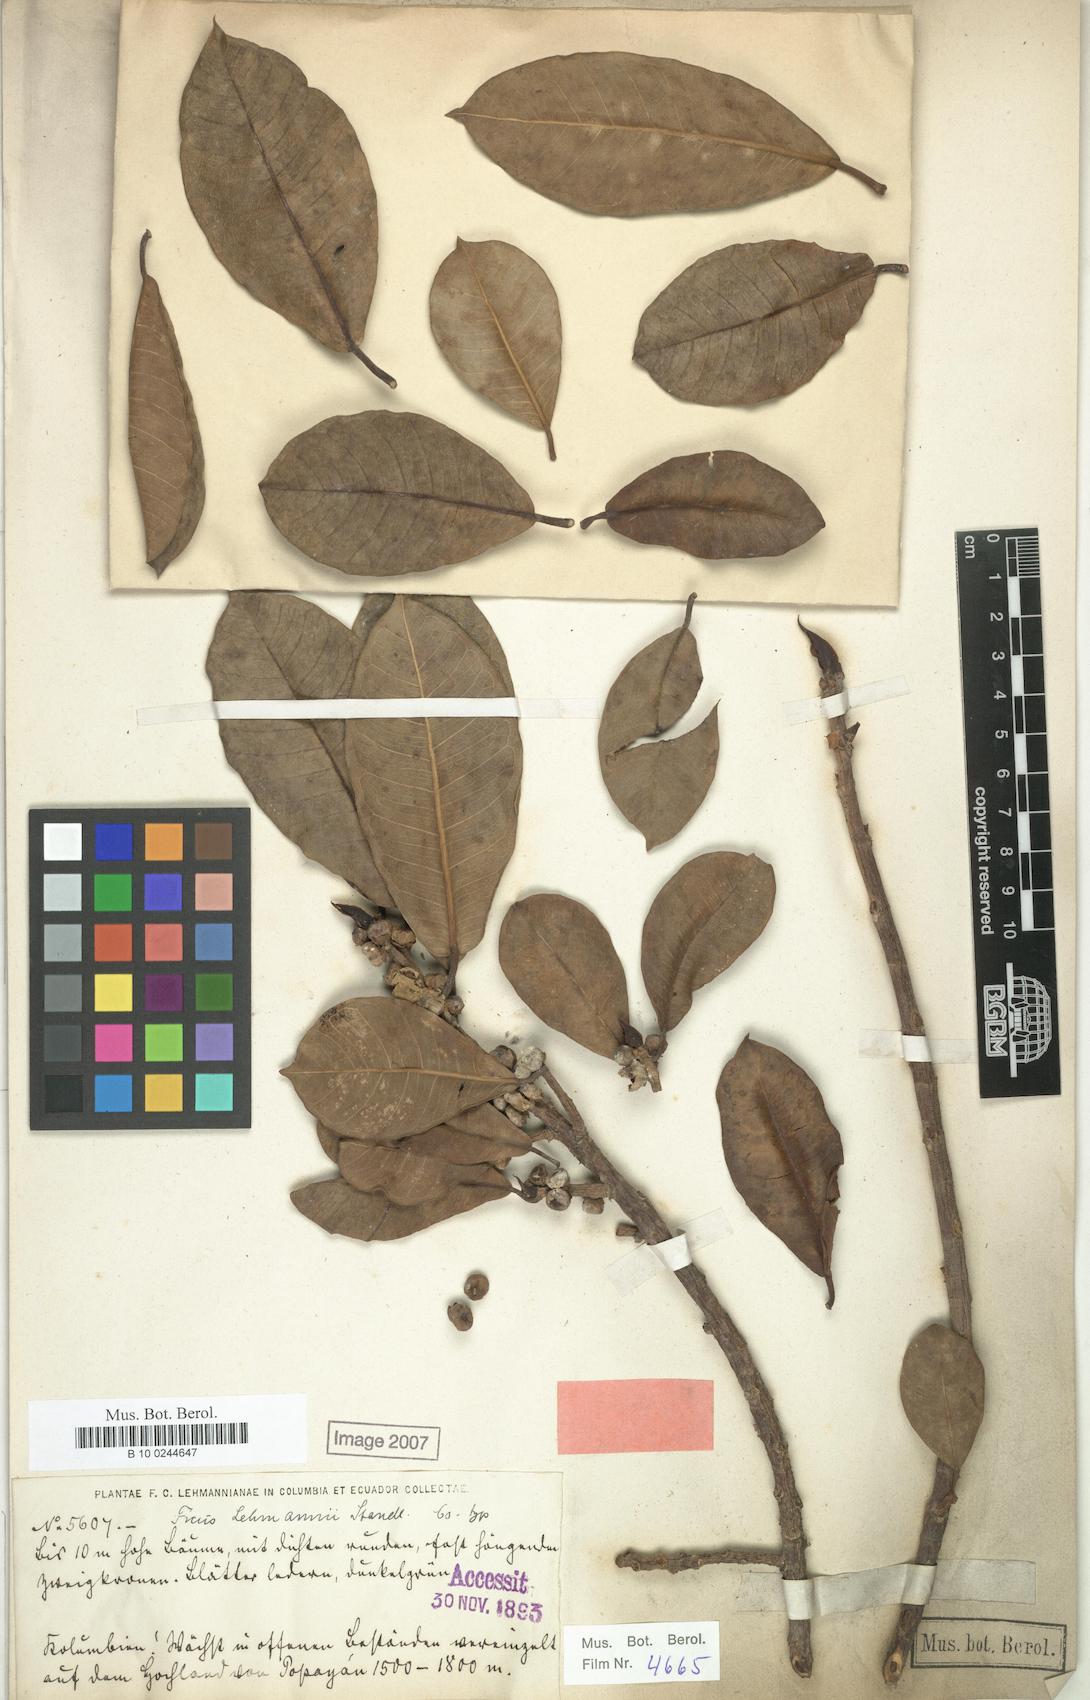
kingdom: Plantae
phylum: Tracheophyta
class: Magnoliopsida
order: Rosales
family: Moraceae
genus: Ficus
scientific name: Ficus lehmannii
